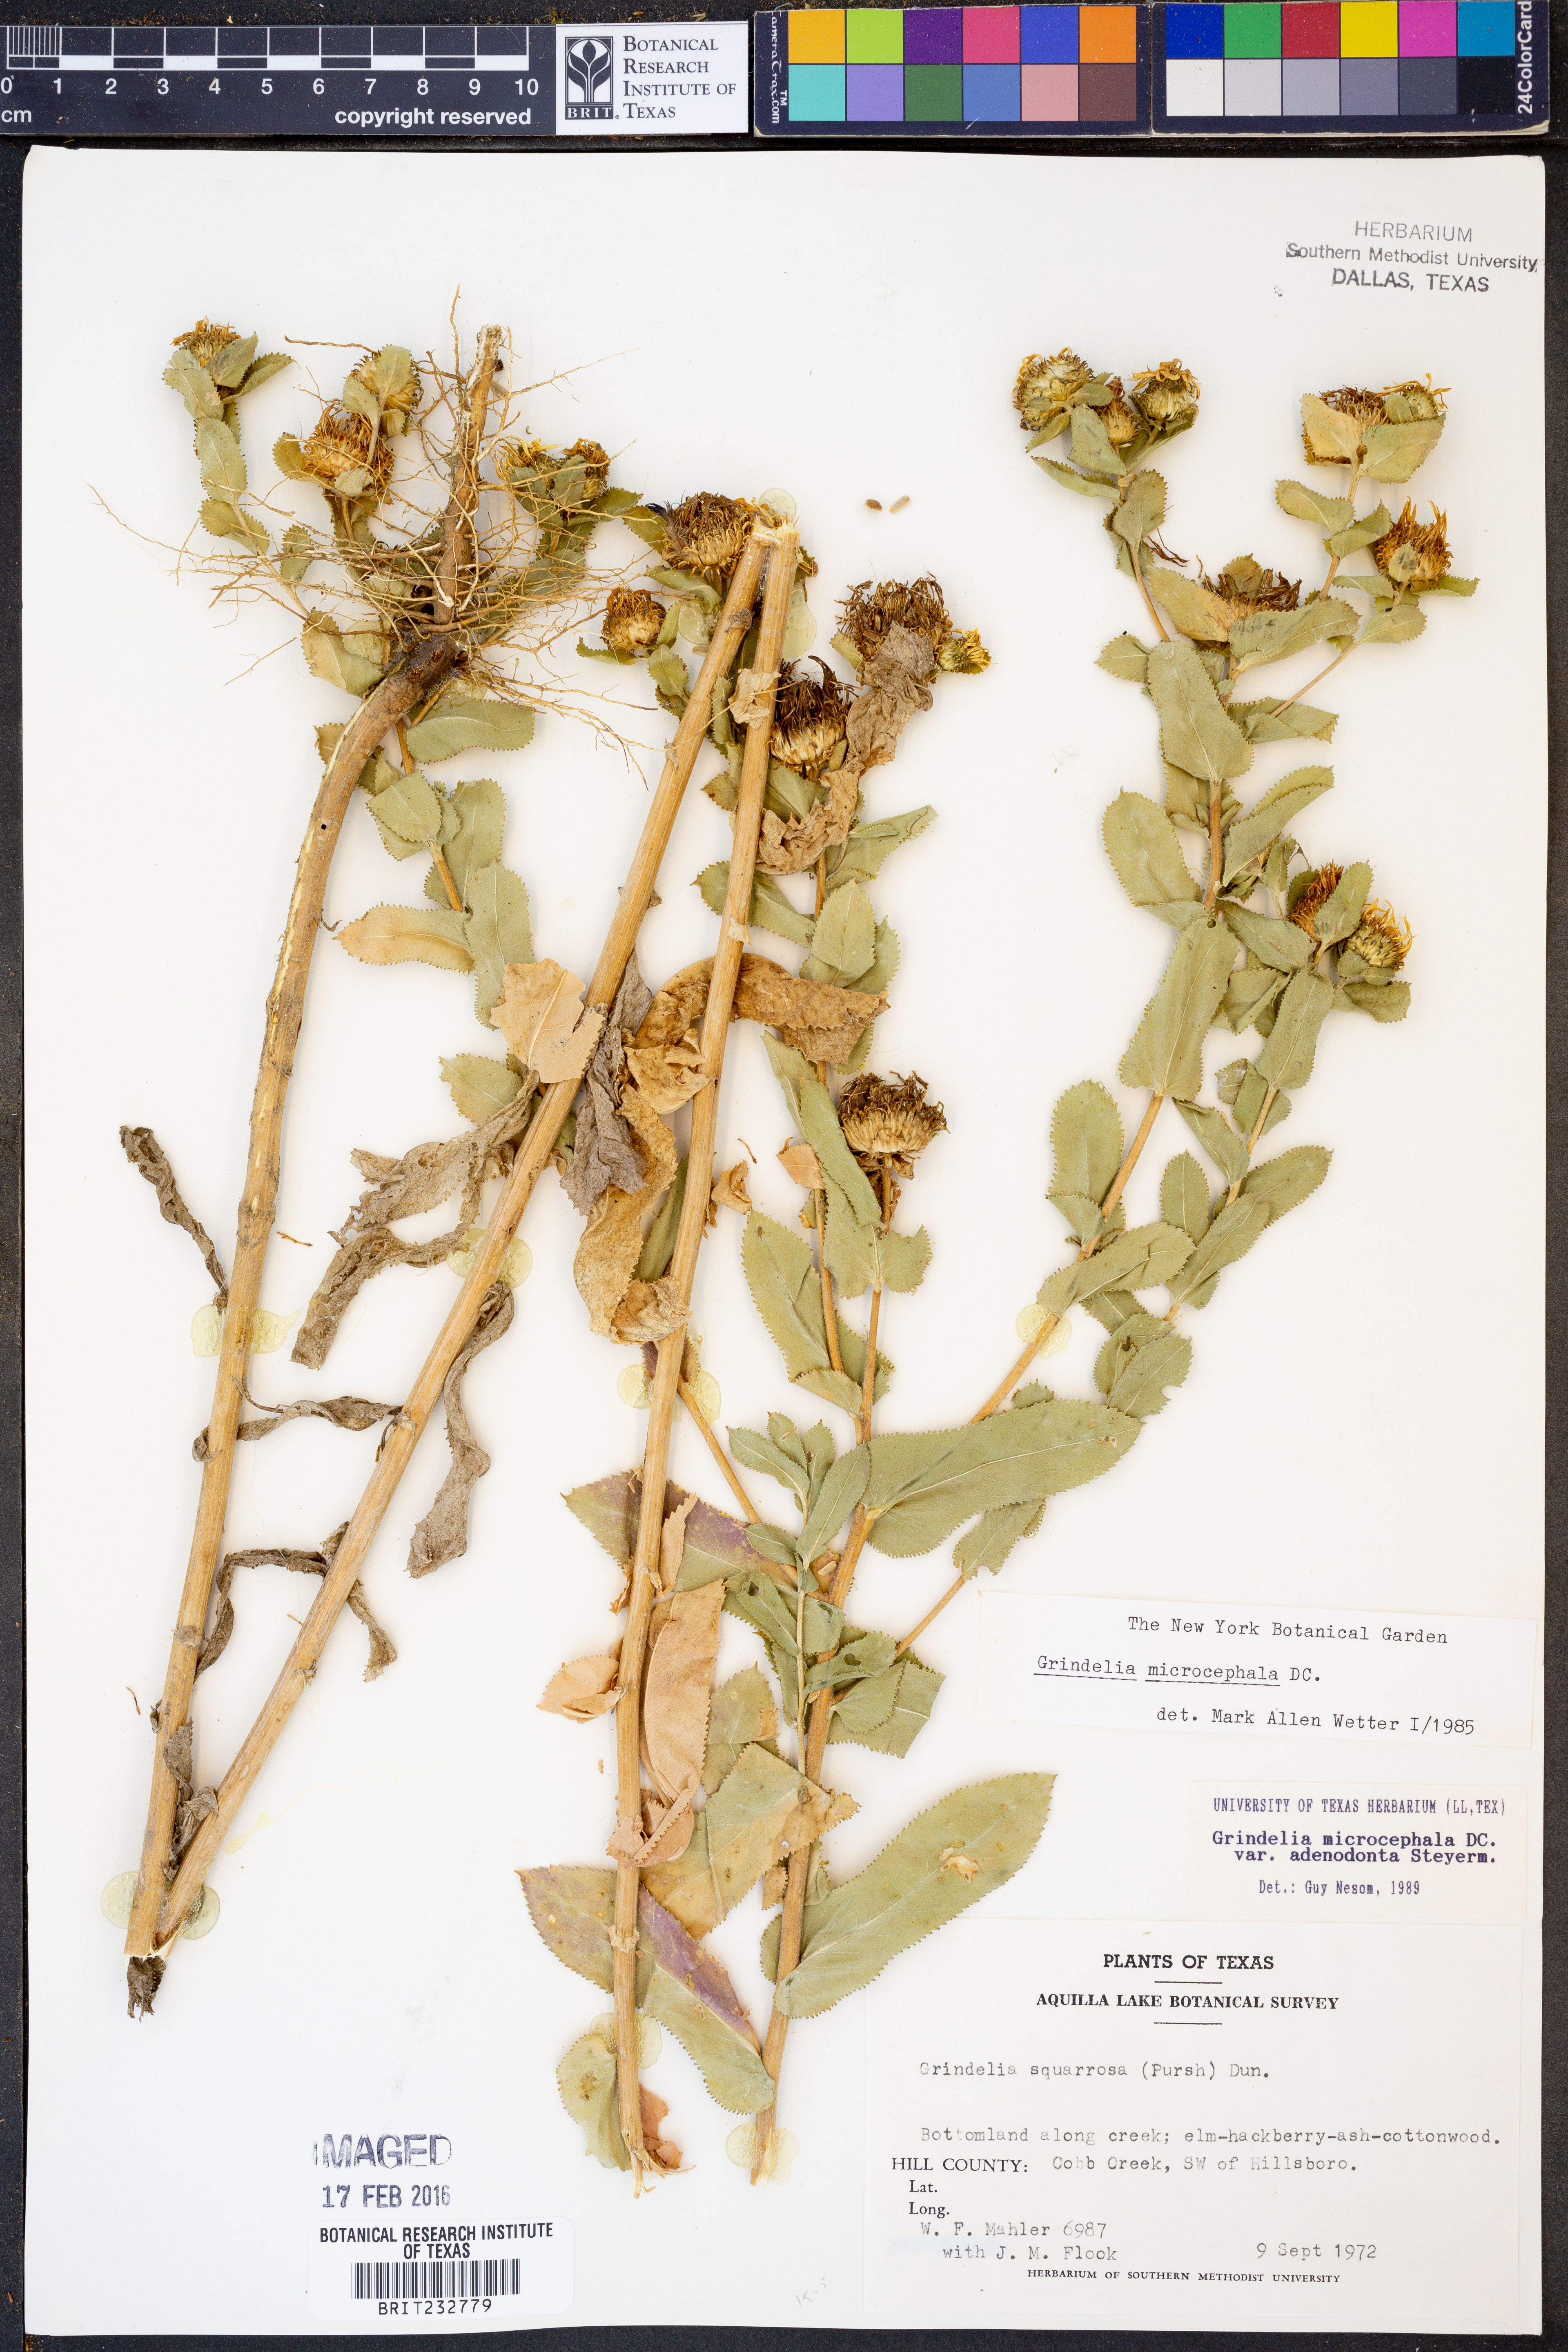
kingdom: Plantae
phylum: Tracheophyta
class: Magnoliopsida
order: Asterales
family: Asteraceae
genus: Grindelia
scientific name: Grindelia adenodonta
